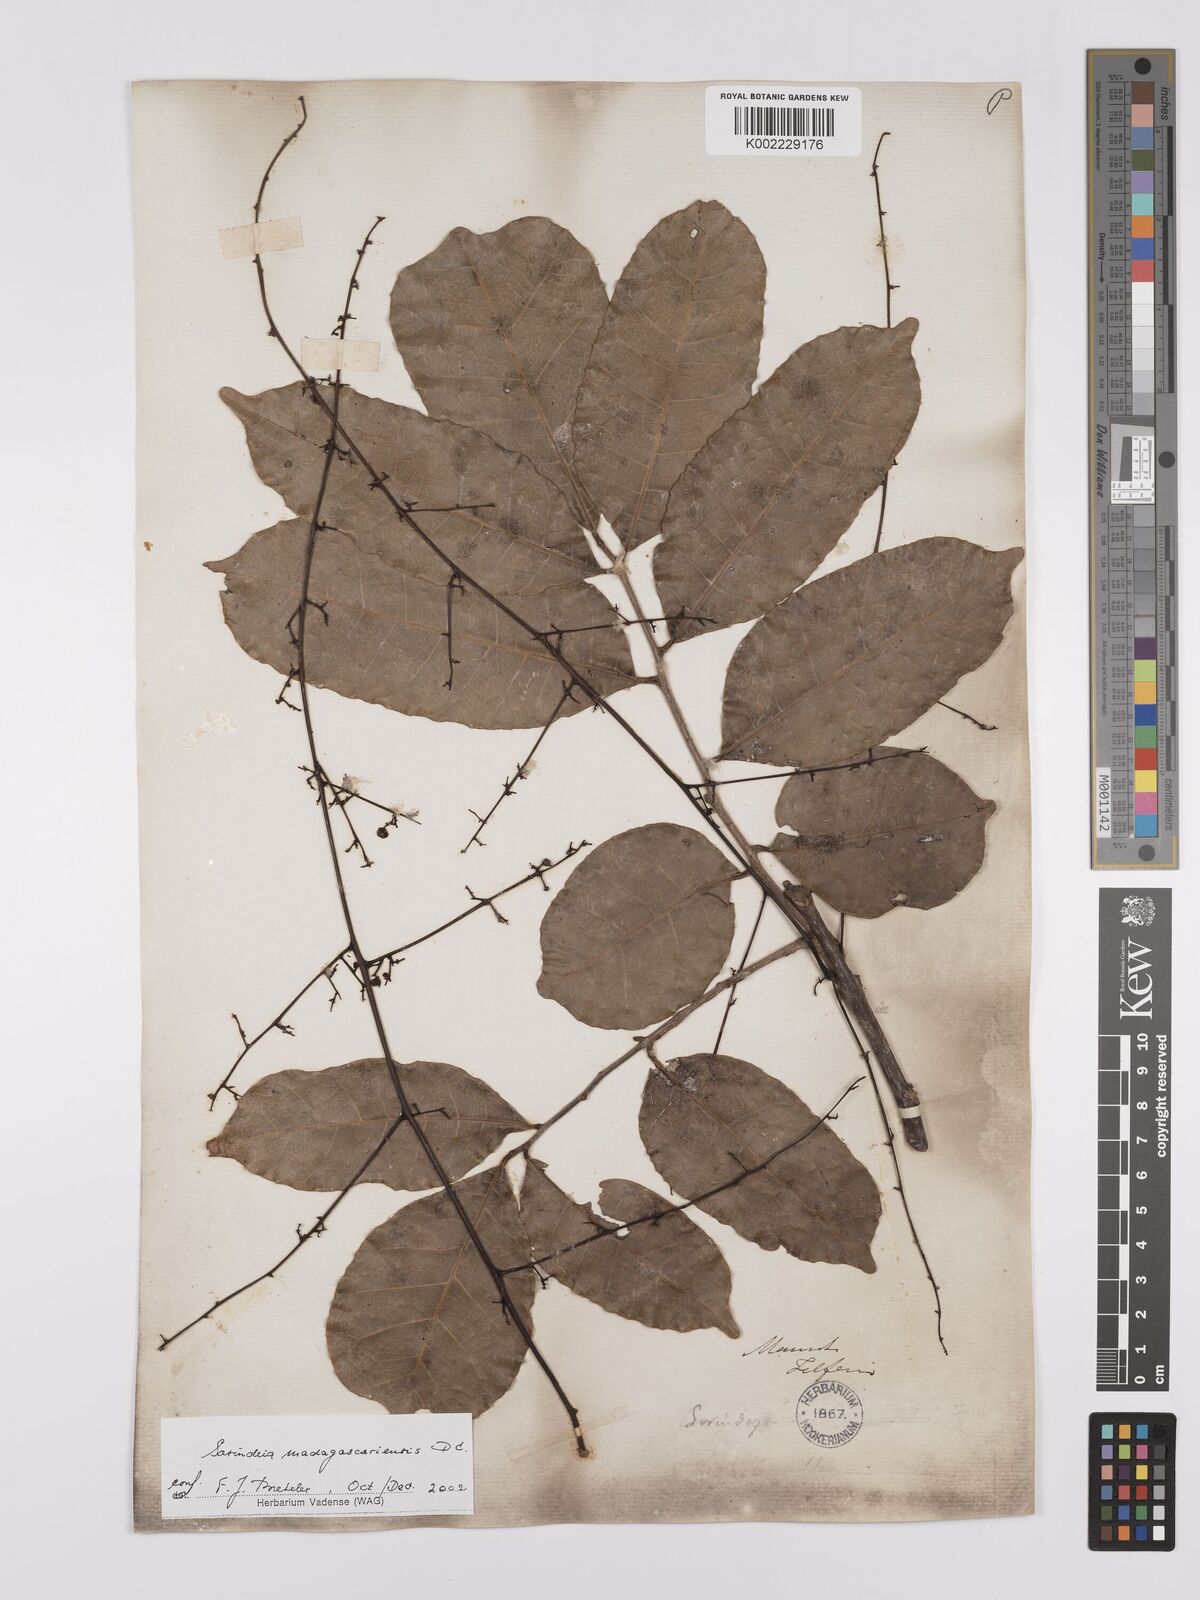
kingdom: Plantae
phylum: Tracheophyta
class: Magnoliopsida
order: Sapindales
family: Anacardiaceae
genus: Sorindeia
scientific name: Sorindeia madagascariensis
